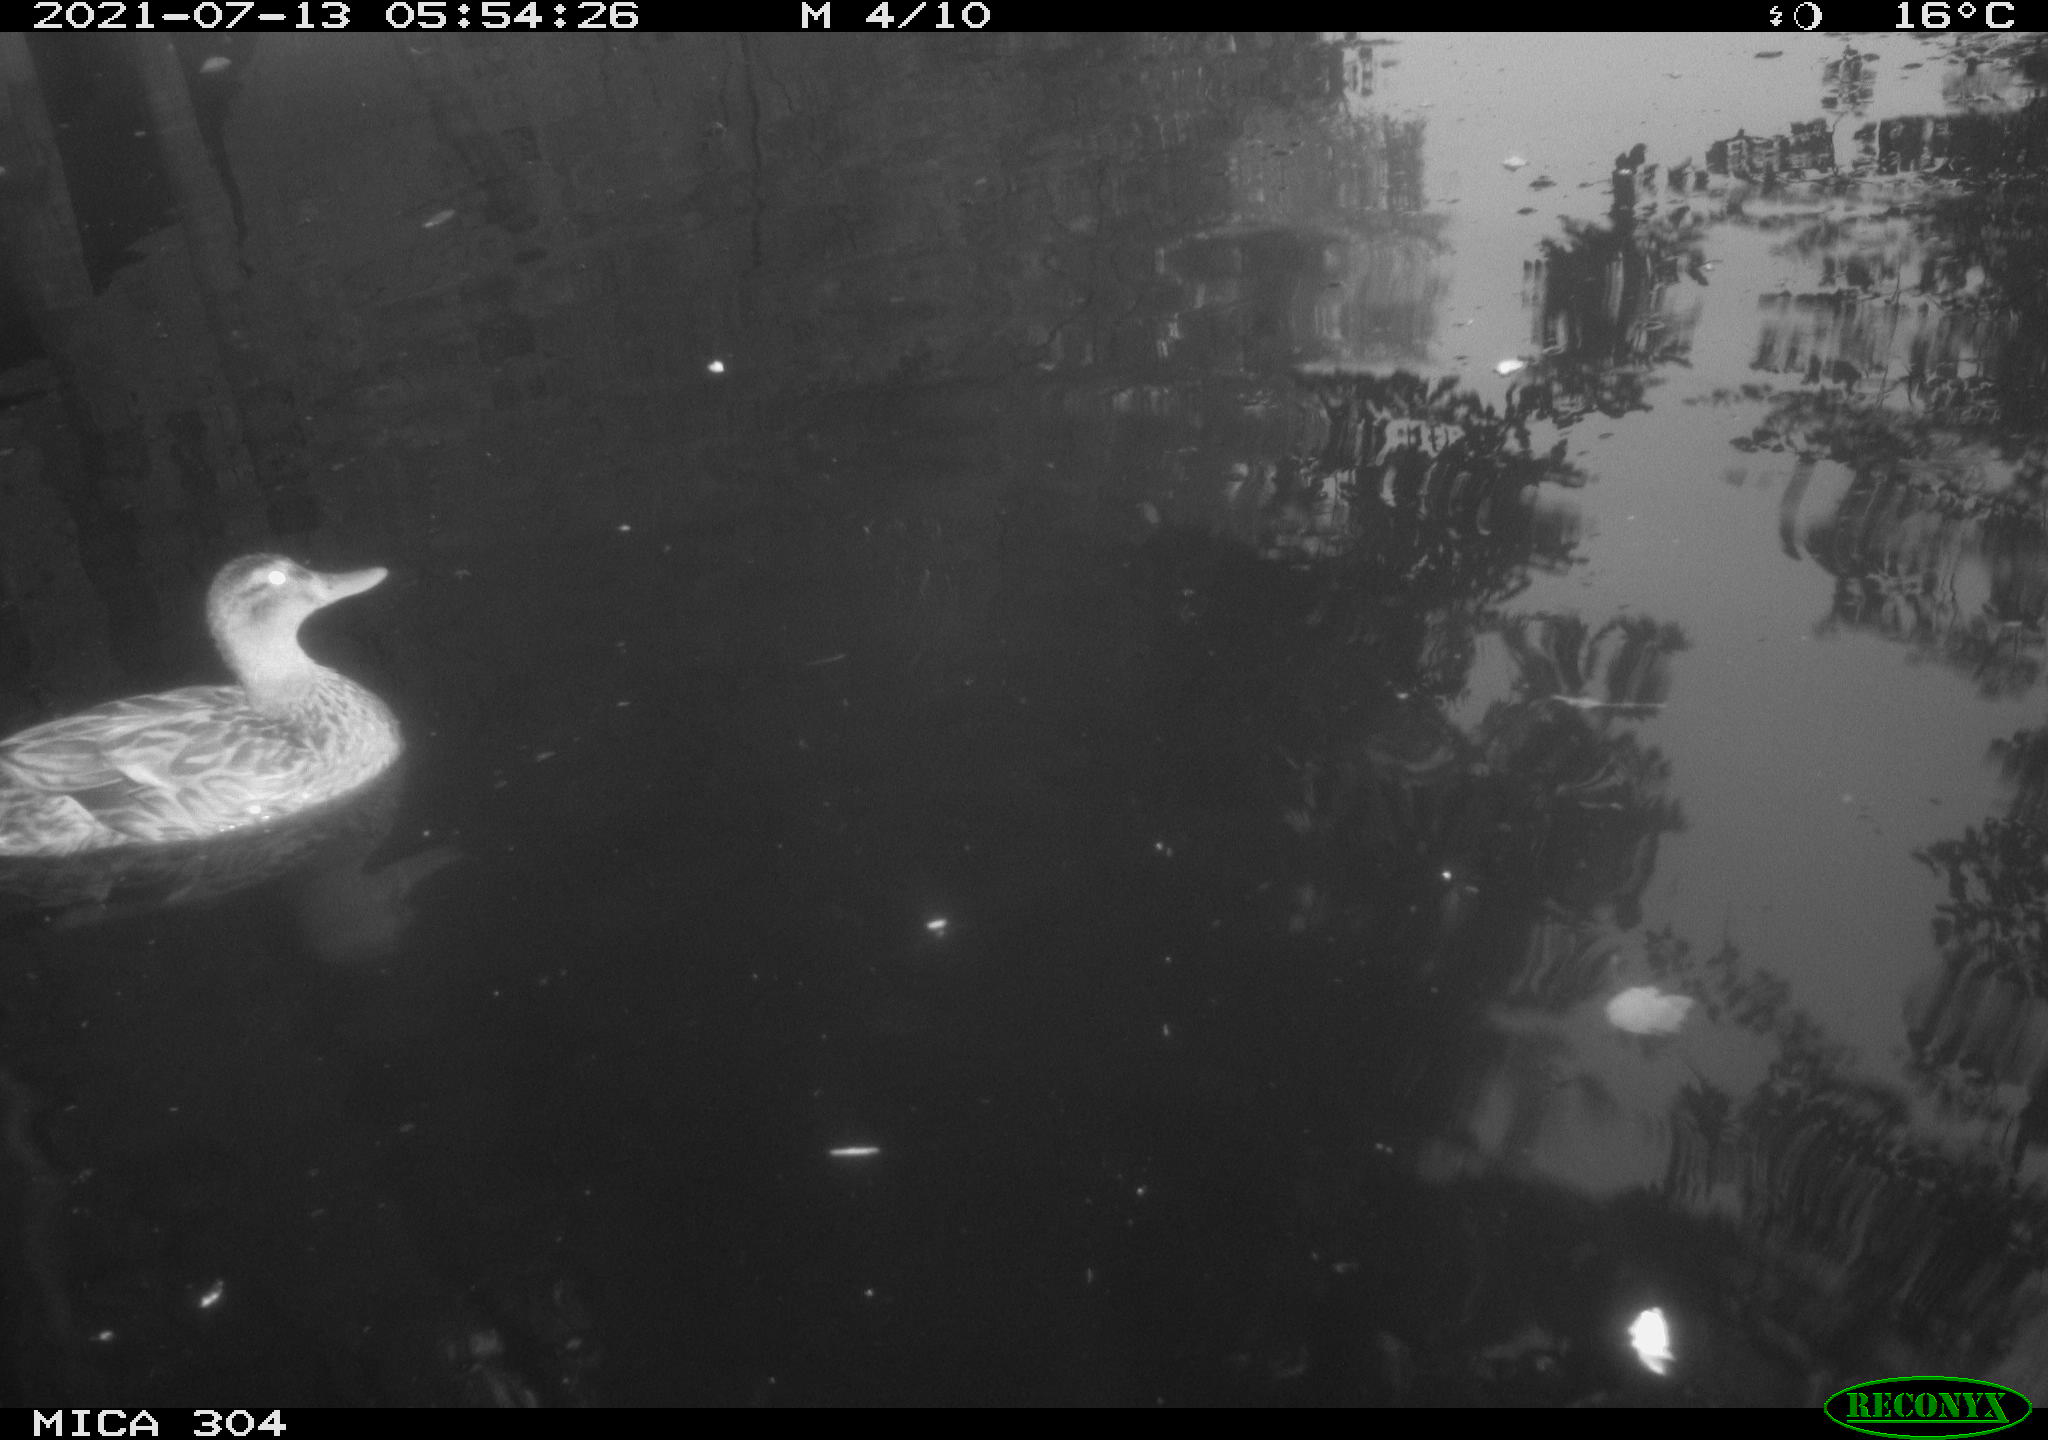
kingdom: Animalia
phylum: Chordata
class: Aves
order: Anseriformes
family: Anatidae
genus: Mareca
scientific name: Mareca strepera
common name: Gadwall
